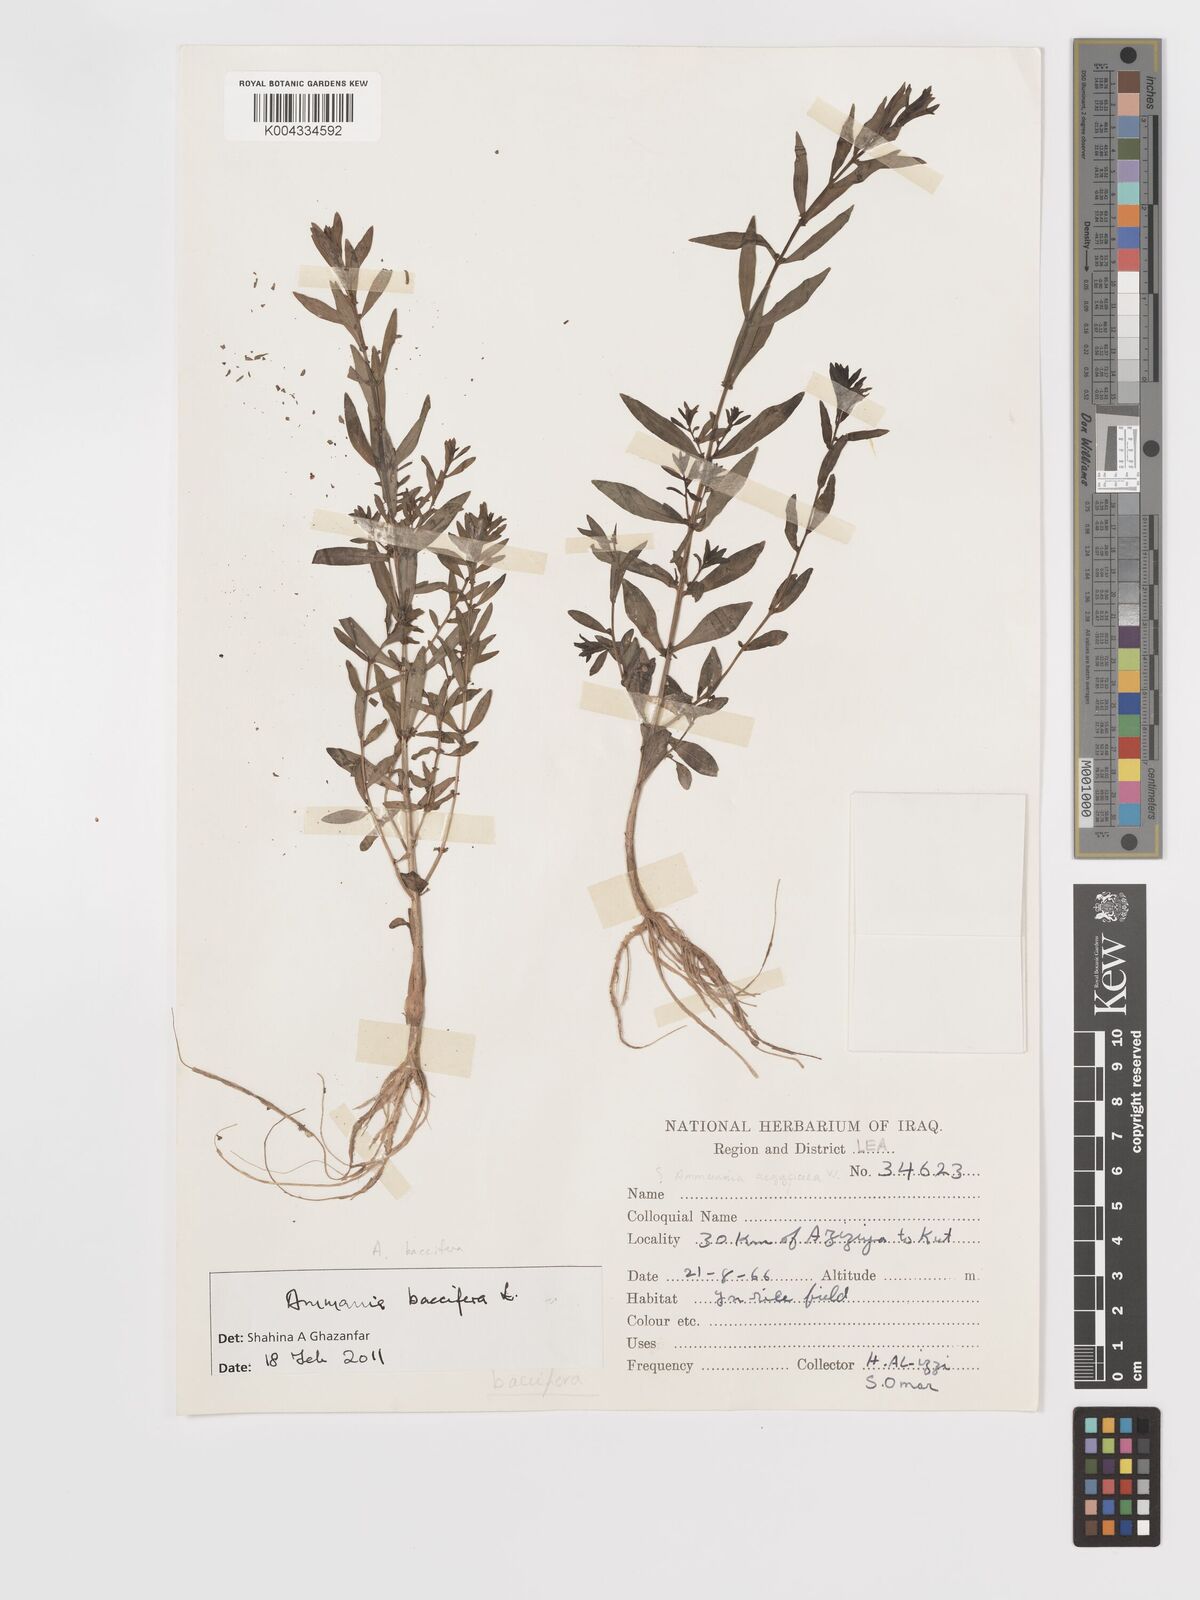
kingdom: Plantae
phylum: Tracheophyta
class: Magnoliopsida
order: Myrtales
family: Lythraceae
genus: Ammannia
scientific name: Ammannia
